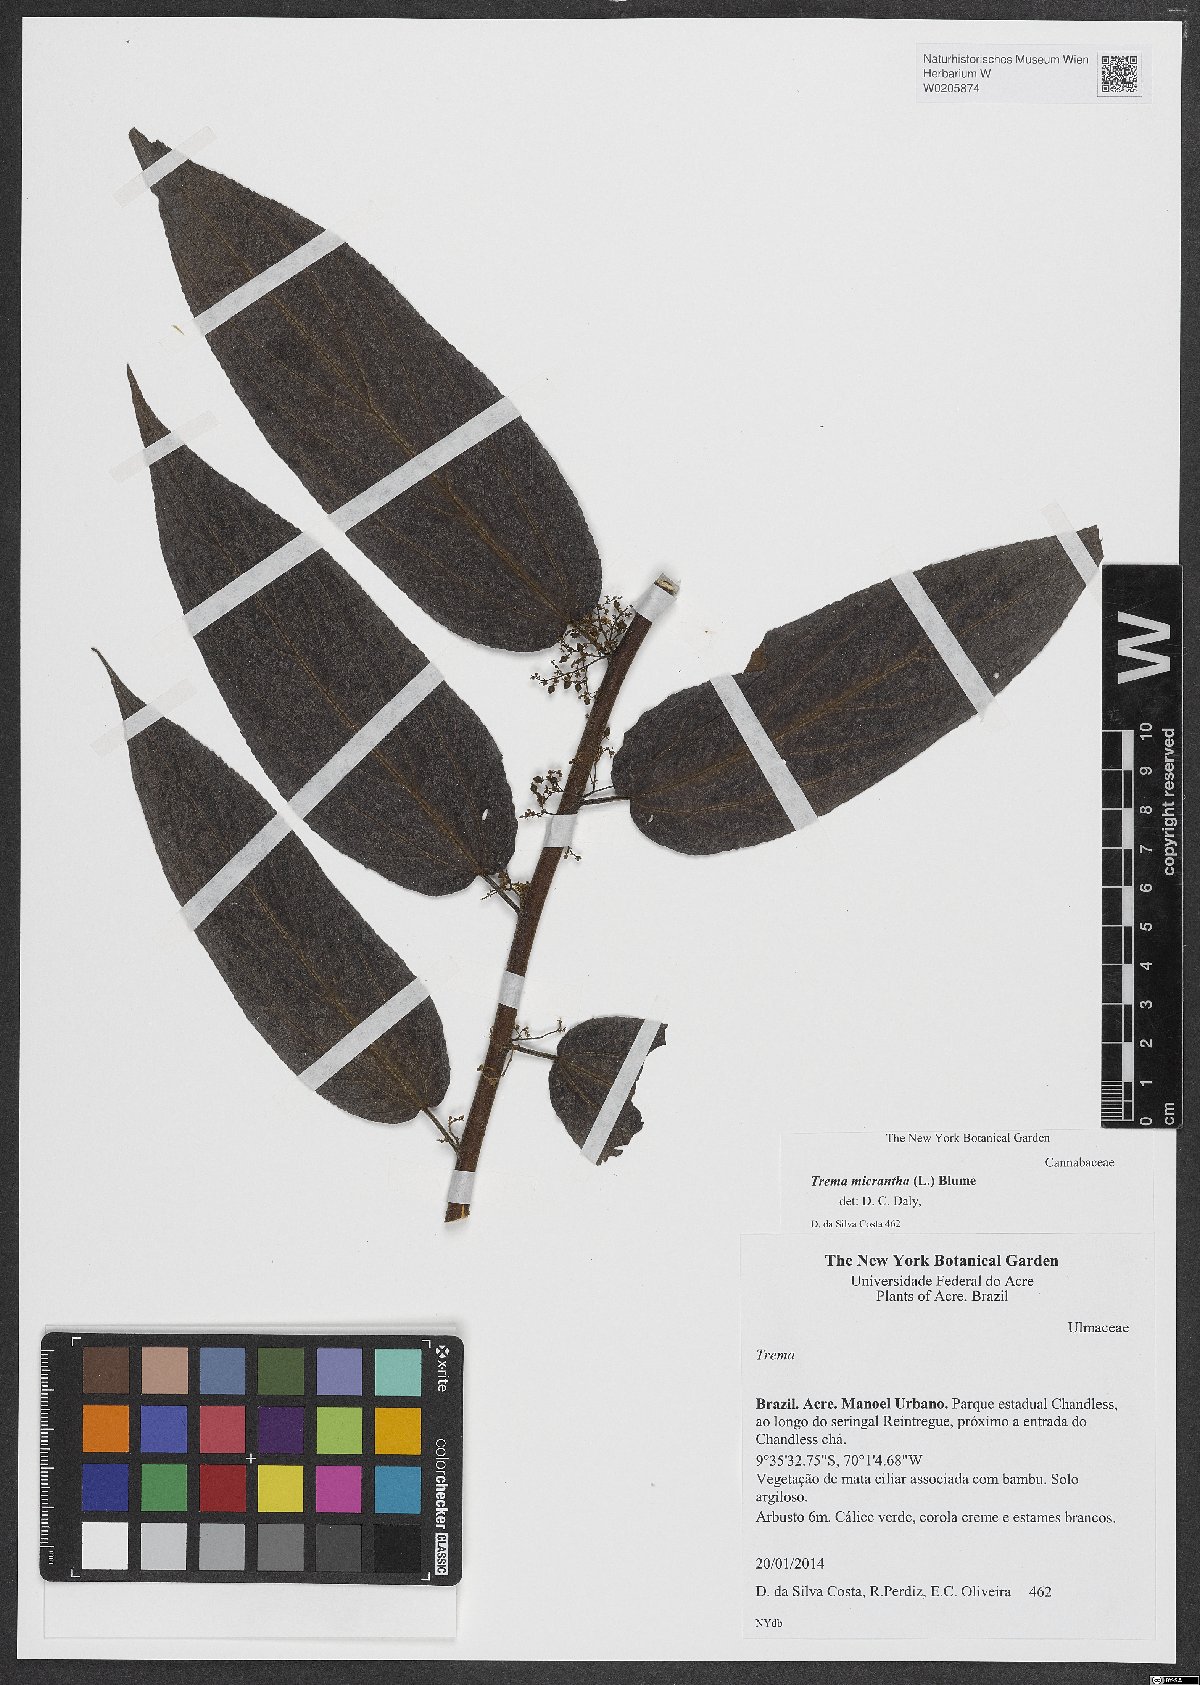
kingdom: Plantae
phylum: Tracheophyta
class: Magnoliopsida
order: Rosales
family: Cannabaceae
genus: Trema
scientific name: Trema micranthum
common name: Jamaican nettletree
